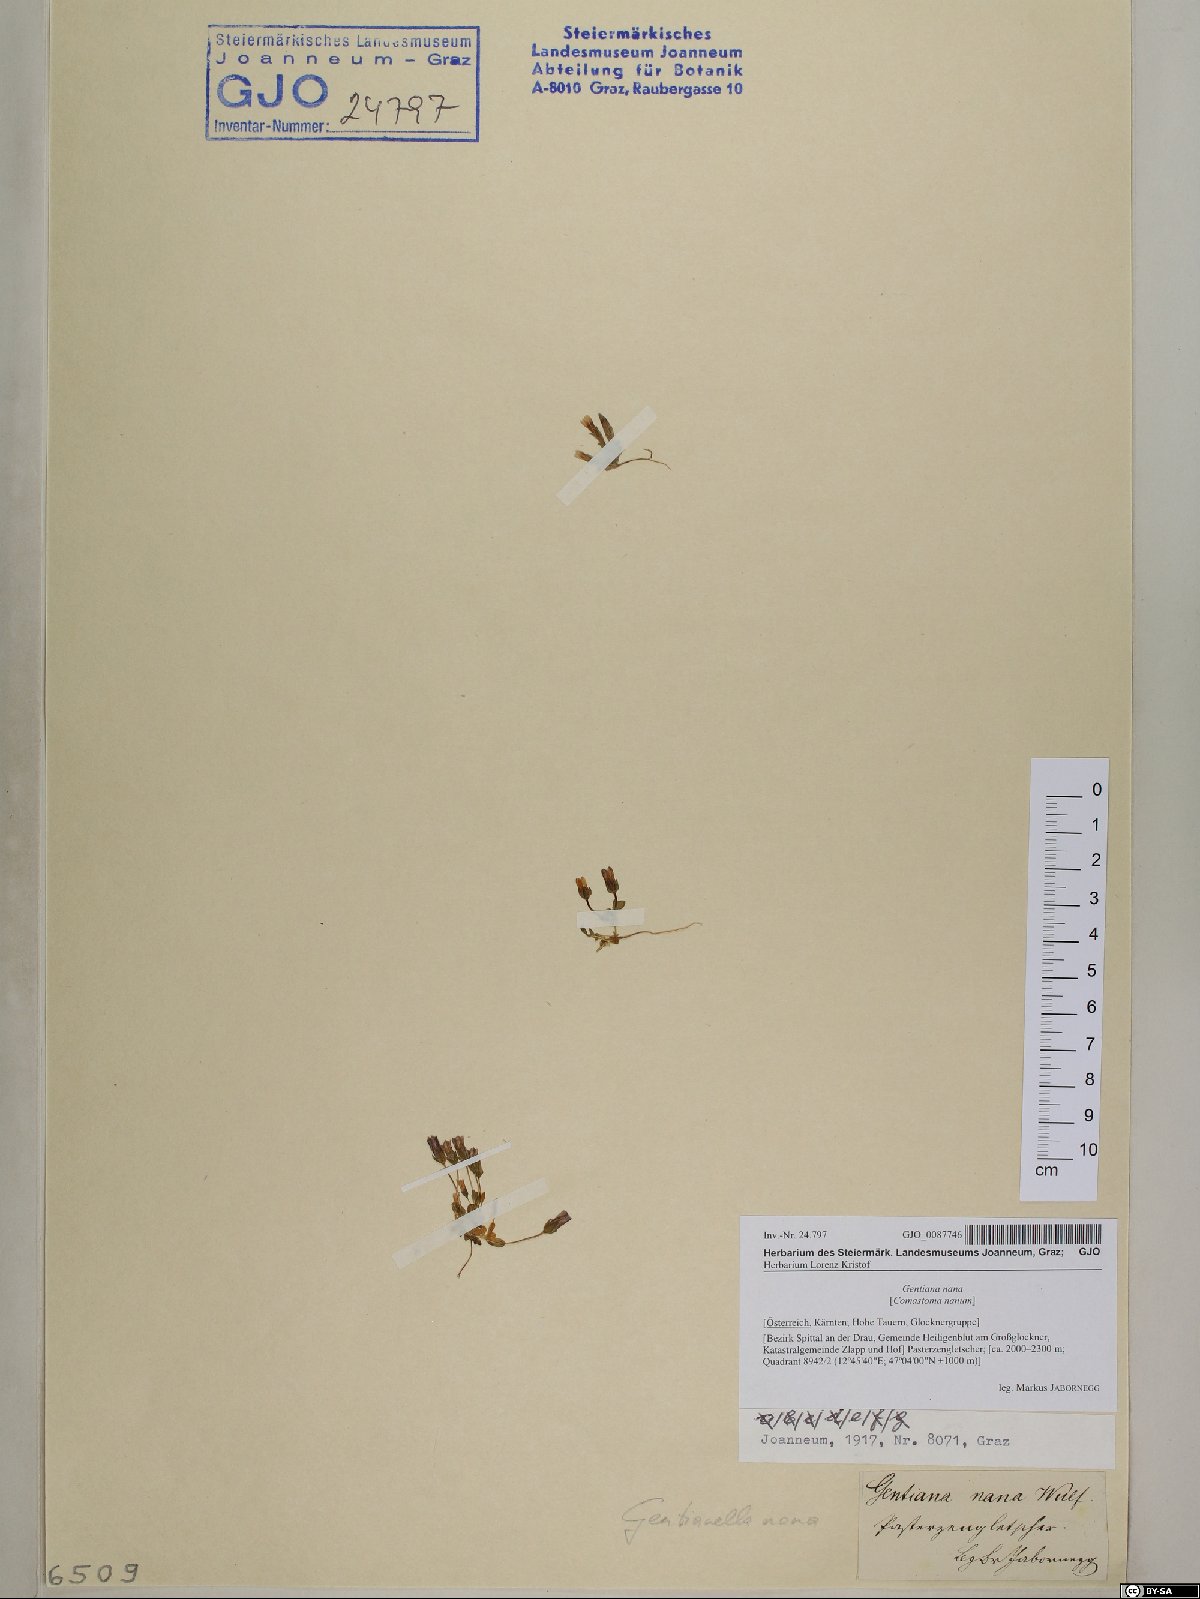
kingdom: Plantae
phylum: Tracheophyta
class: Magnoliopsida
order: Gentianales
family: Gentianaceae
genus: Comastoma
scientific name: Comastoma nanum
